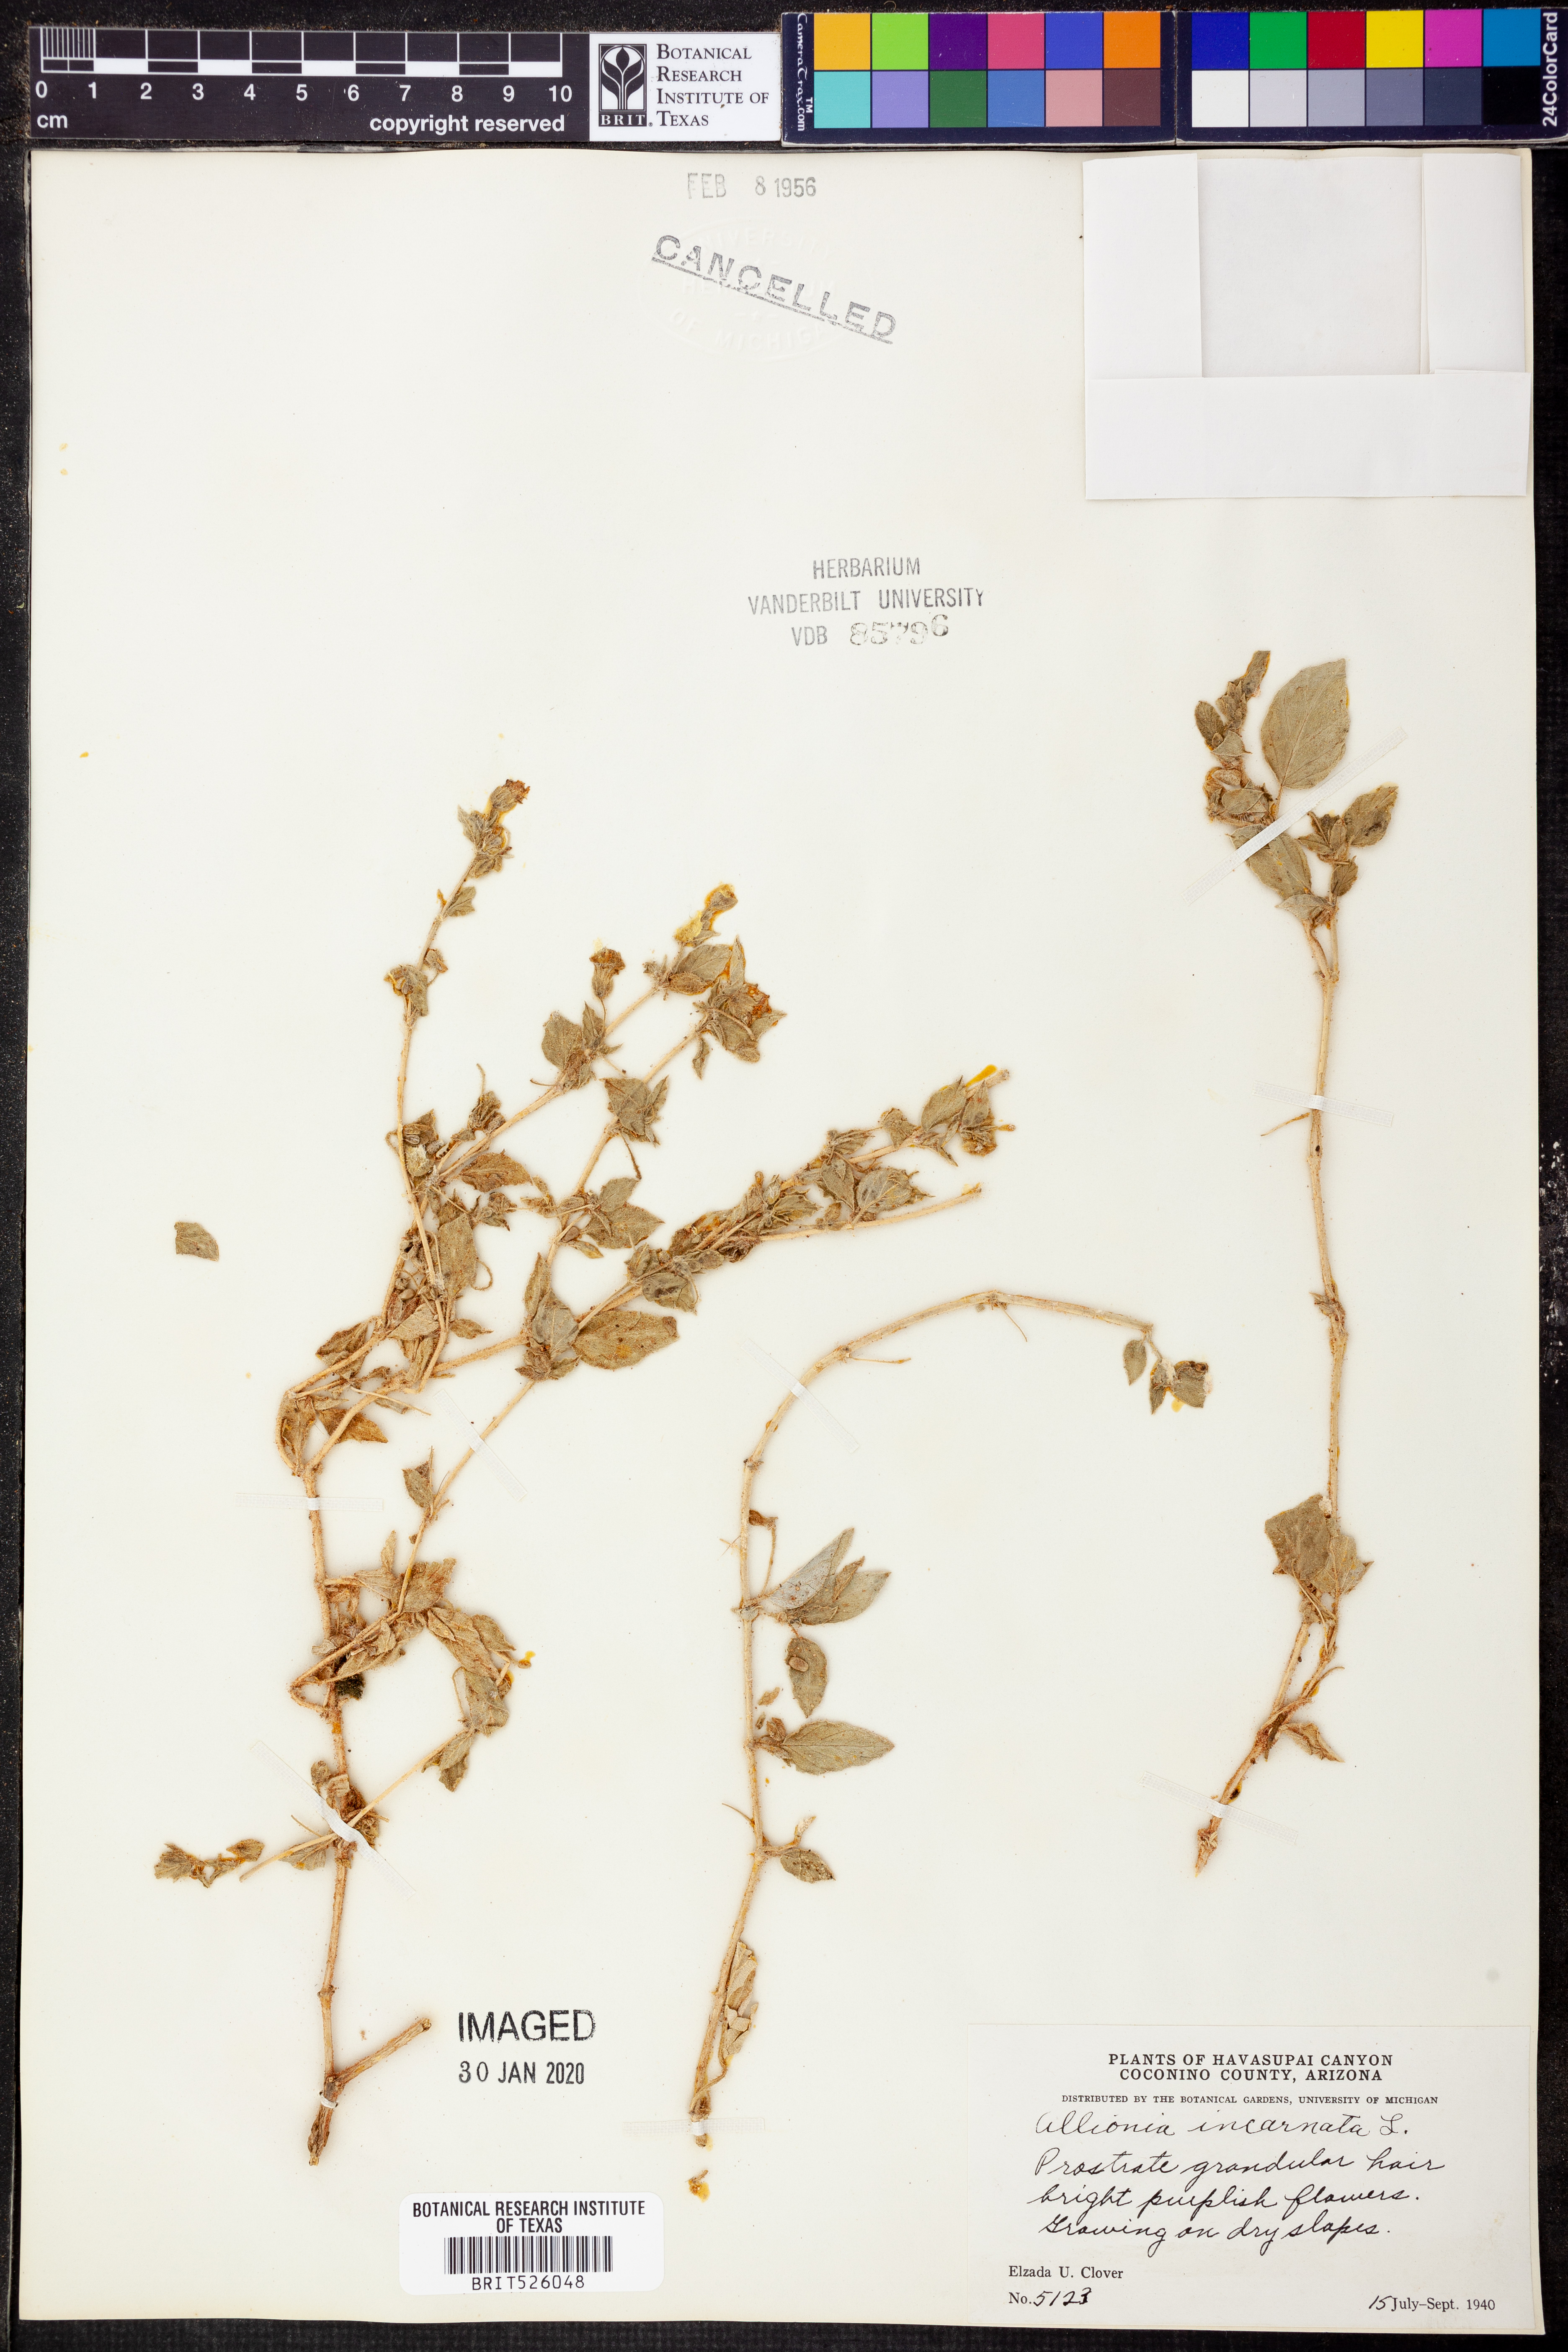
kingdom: Plantae
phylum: Tracheophyta
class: Magnoliopsida
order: Caryophyllales
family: Nyctaginaceae
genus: Allionia
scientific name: Allionia incarnata
